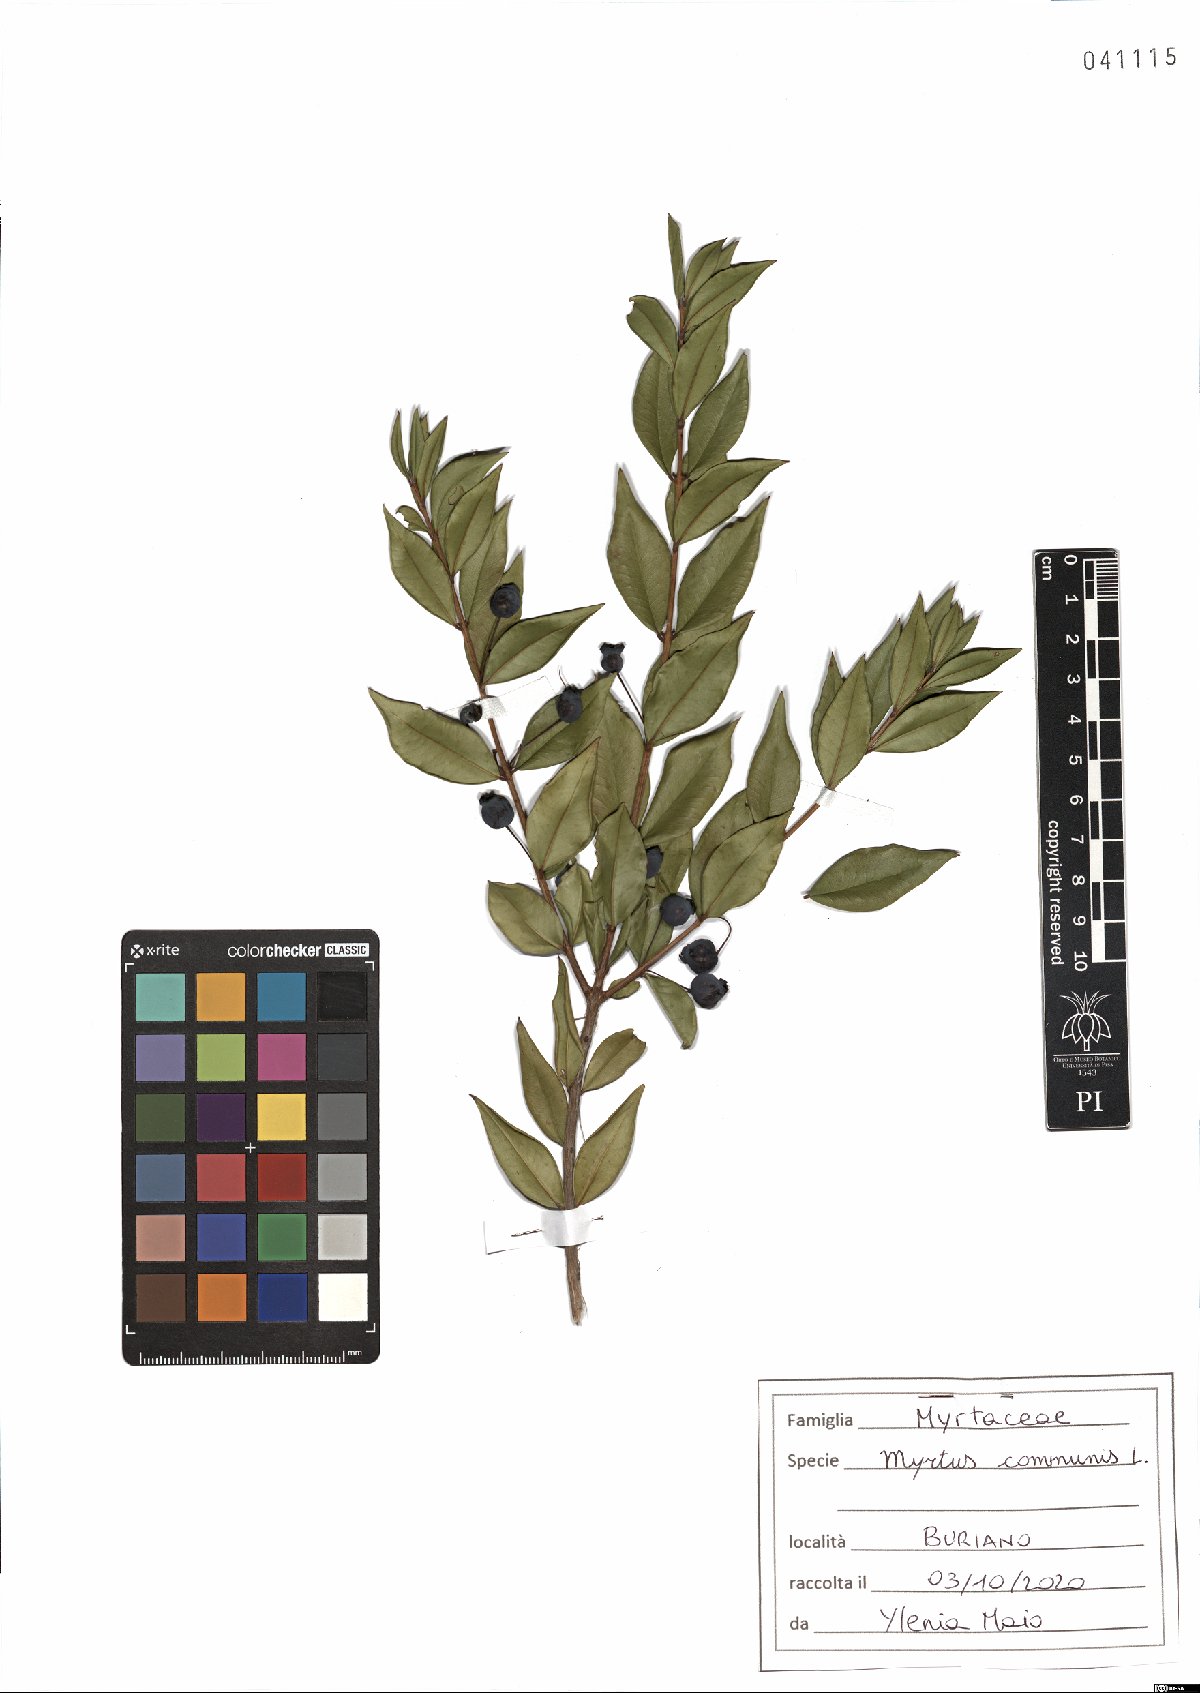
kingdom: Plantae
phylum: Tracheophyta
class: Magnoliopsida
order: Myrtales
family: Myrtaceae
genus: Myrtus
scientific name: Myrtus communis
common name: Myrtle
